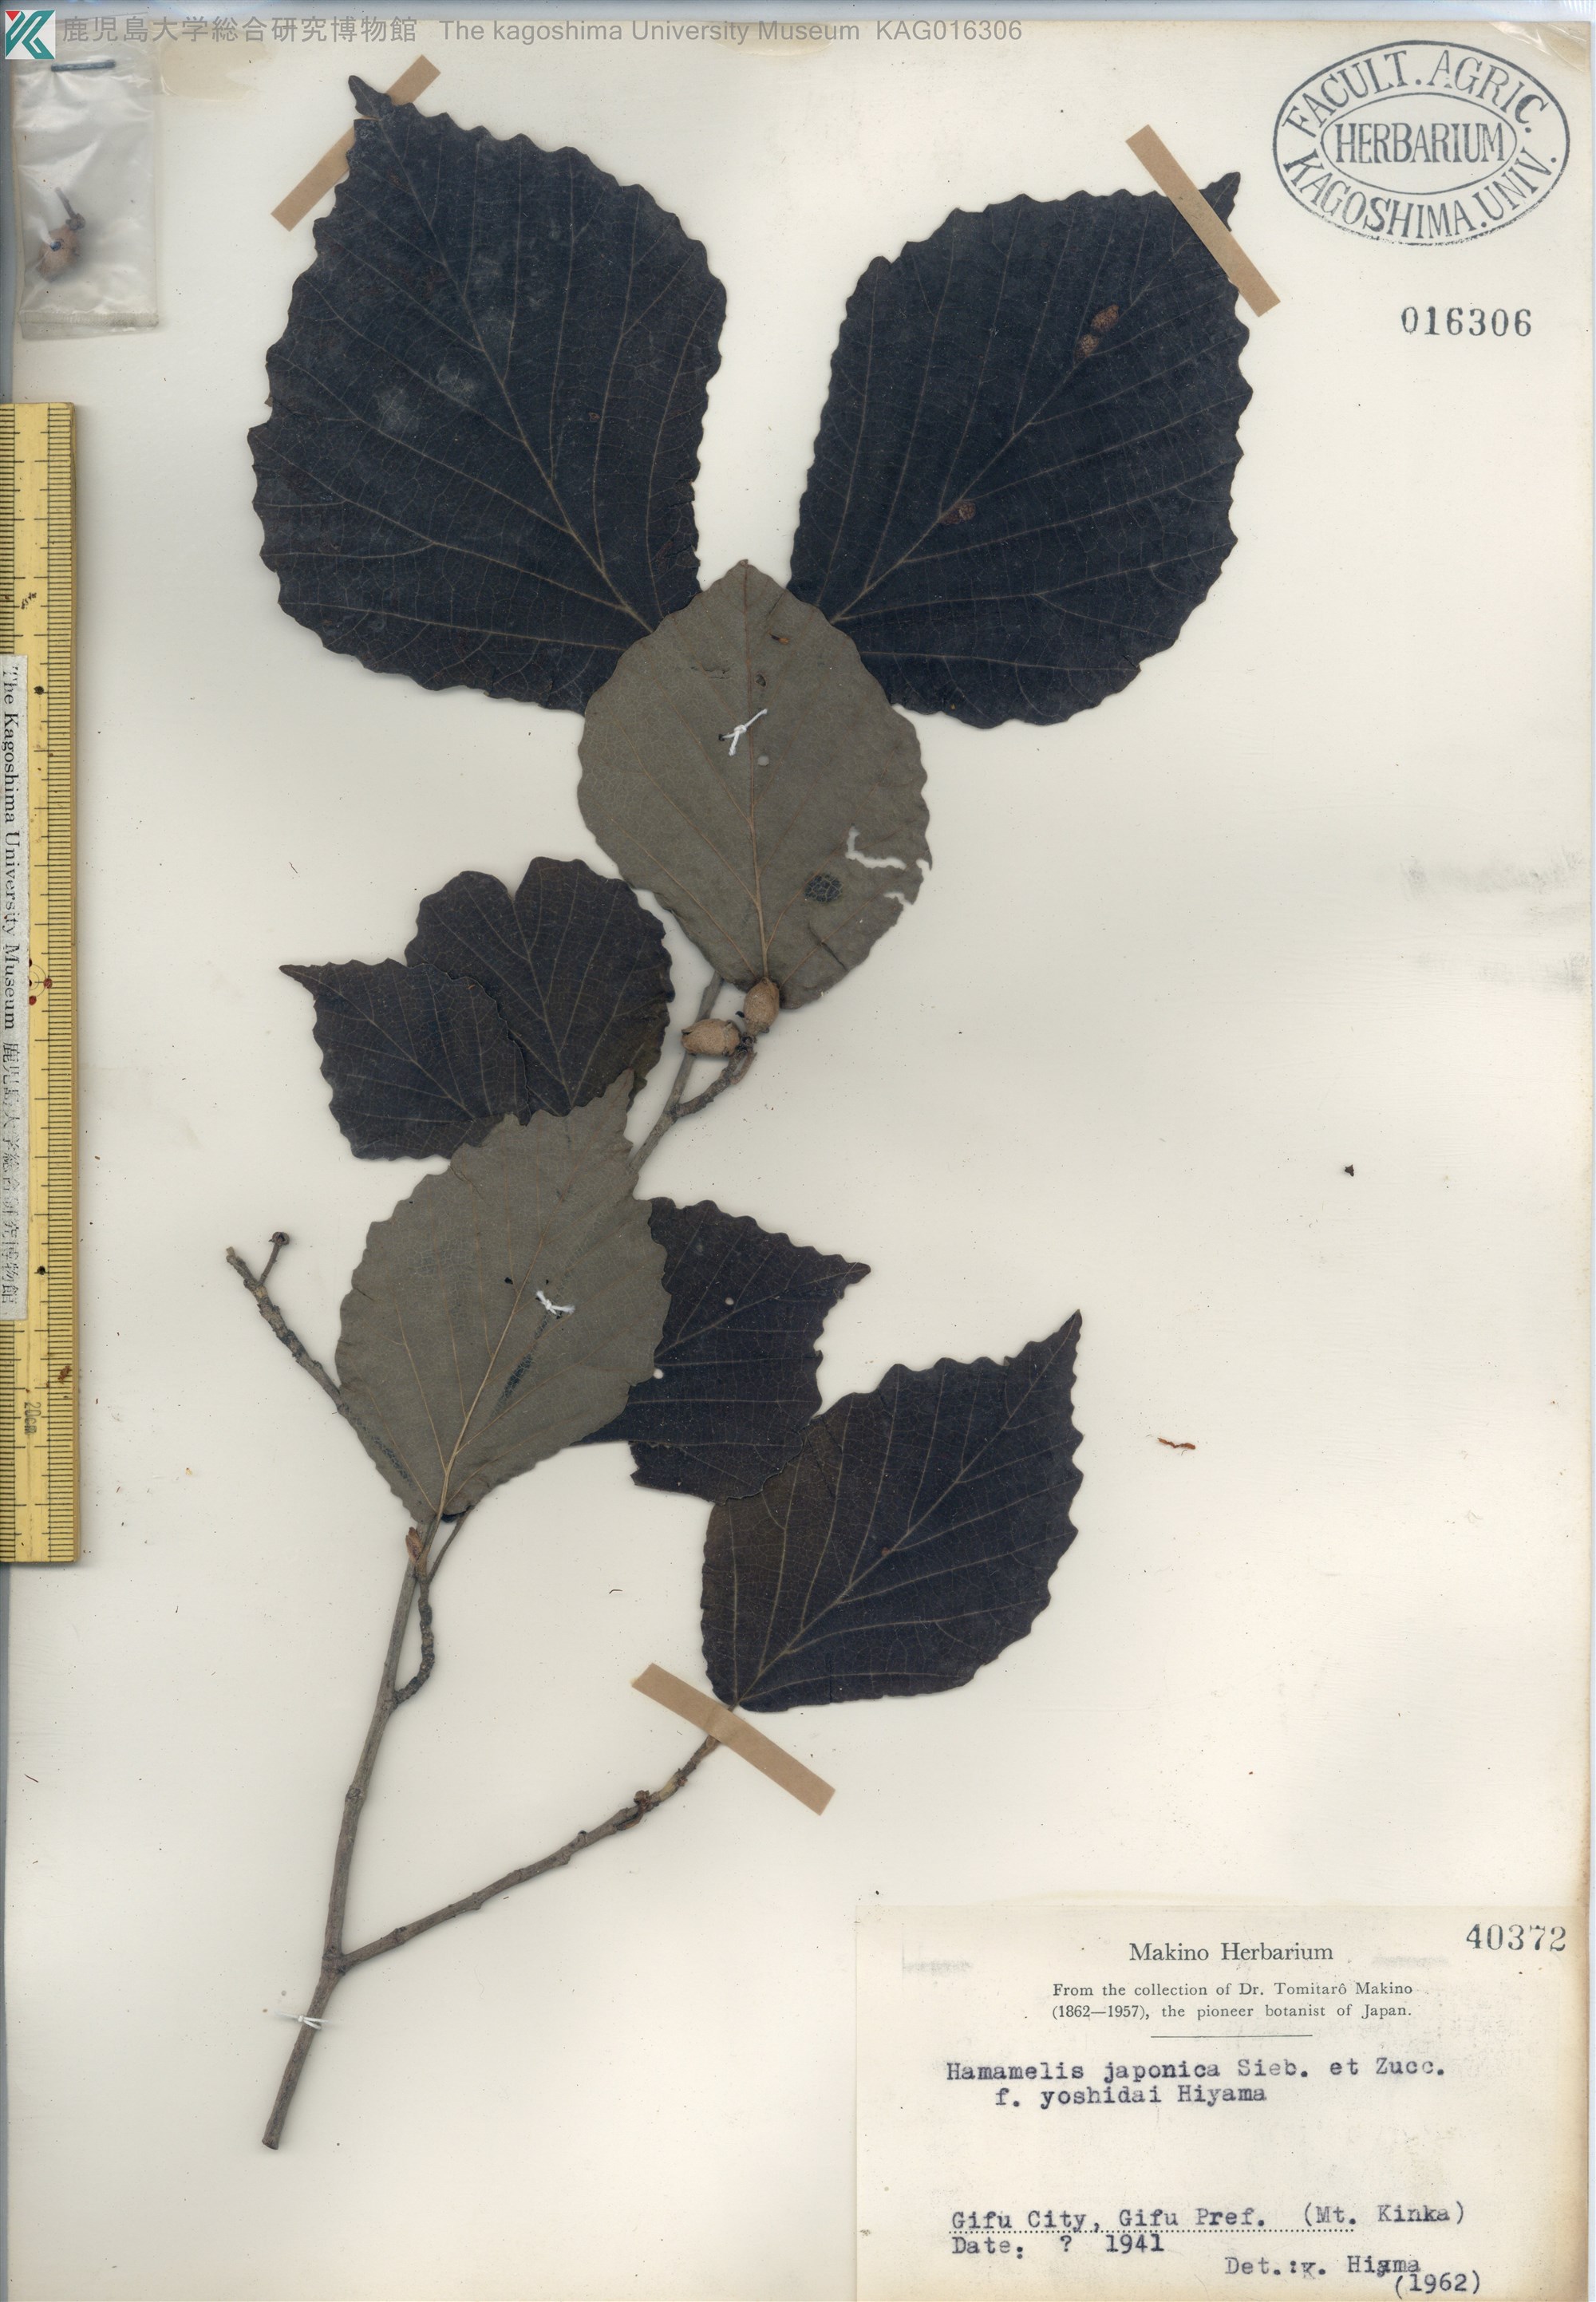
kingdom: Plantae
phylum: Tracheophyta
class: Magnoliopsida
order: Saxifragales
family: Hamamelidaceae
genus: Hamamelis
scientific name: Hamamelis japonica
